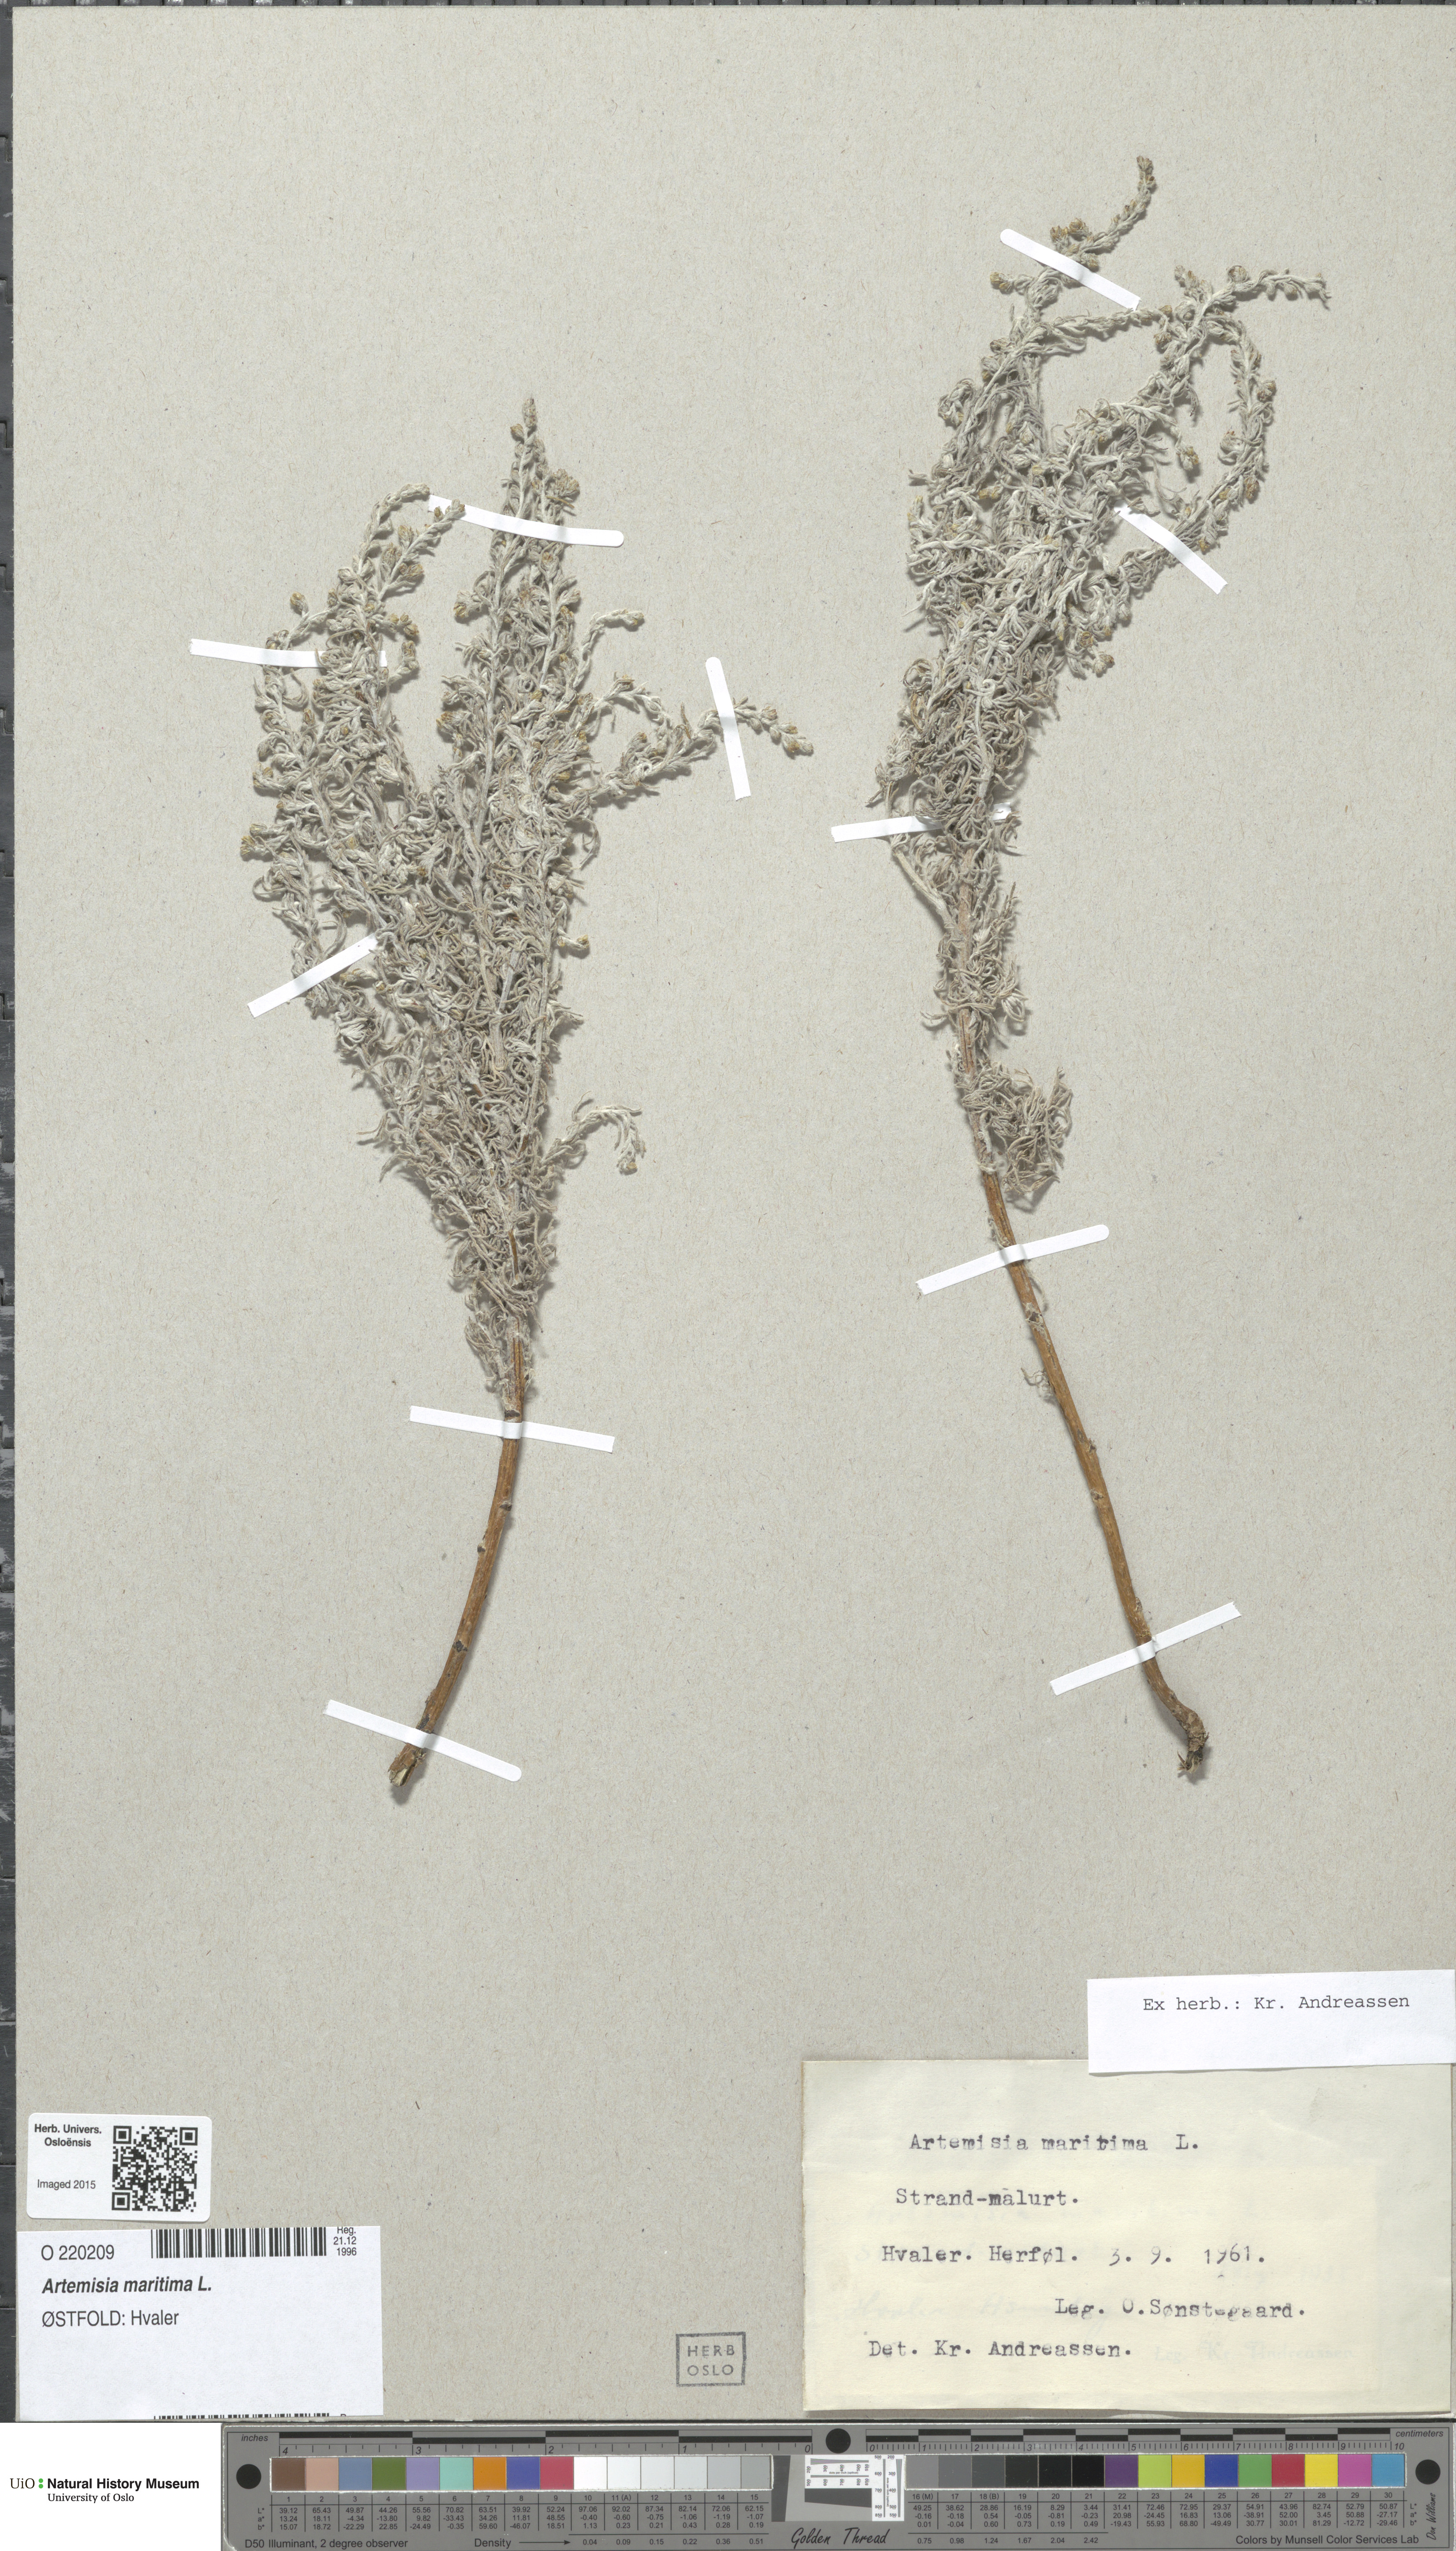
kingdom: Plantae
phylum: Tracheophyta
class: Magnoliopsida
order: Asterales
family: Asteraceae
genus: Artemisia
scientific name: Artemisia maritima
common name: Wormseed
